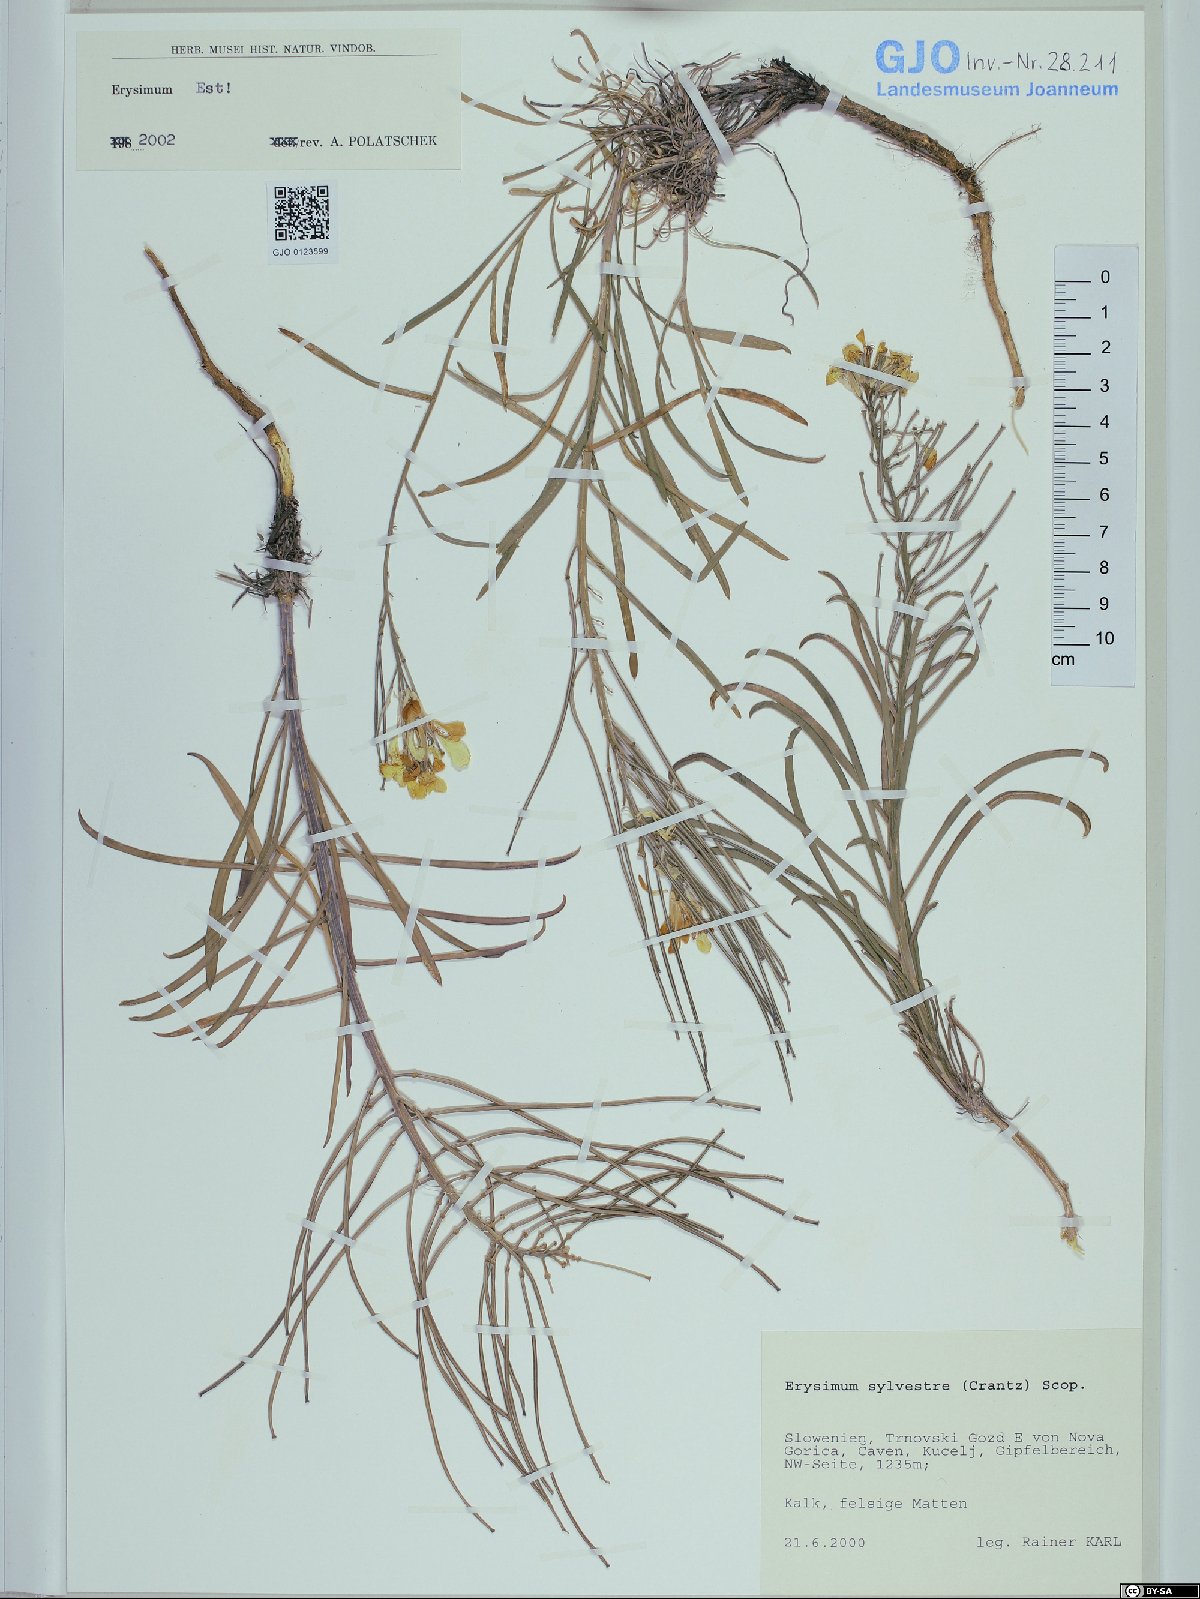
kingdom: Plantae
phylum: Tracheophyta
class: Magnoliopsida
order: Brassicales
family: Brassicaceae
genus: Erysimum
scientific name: Erysimum sylvestre
